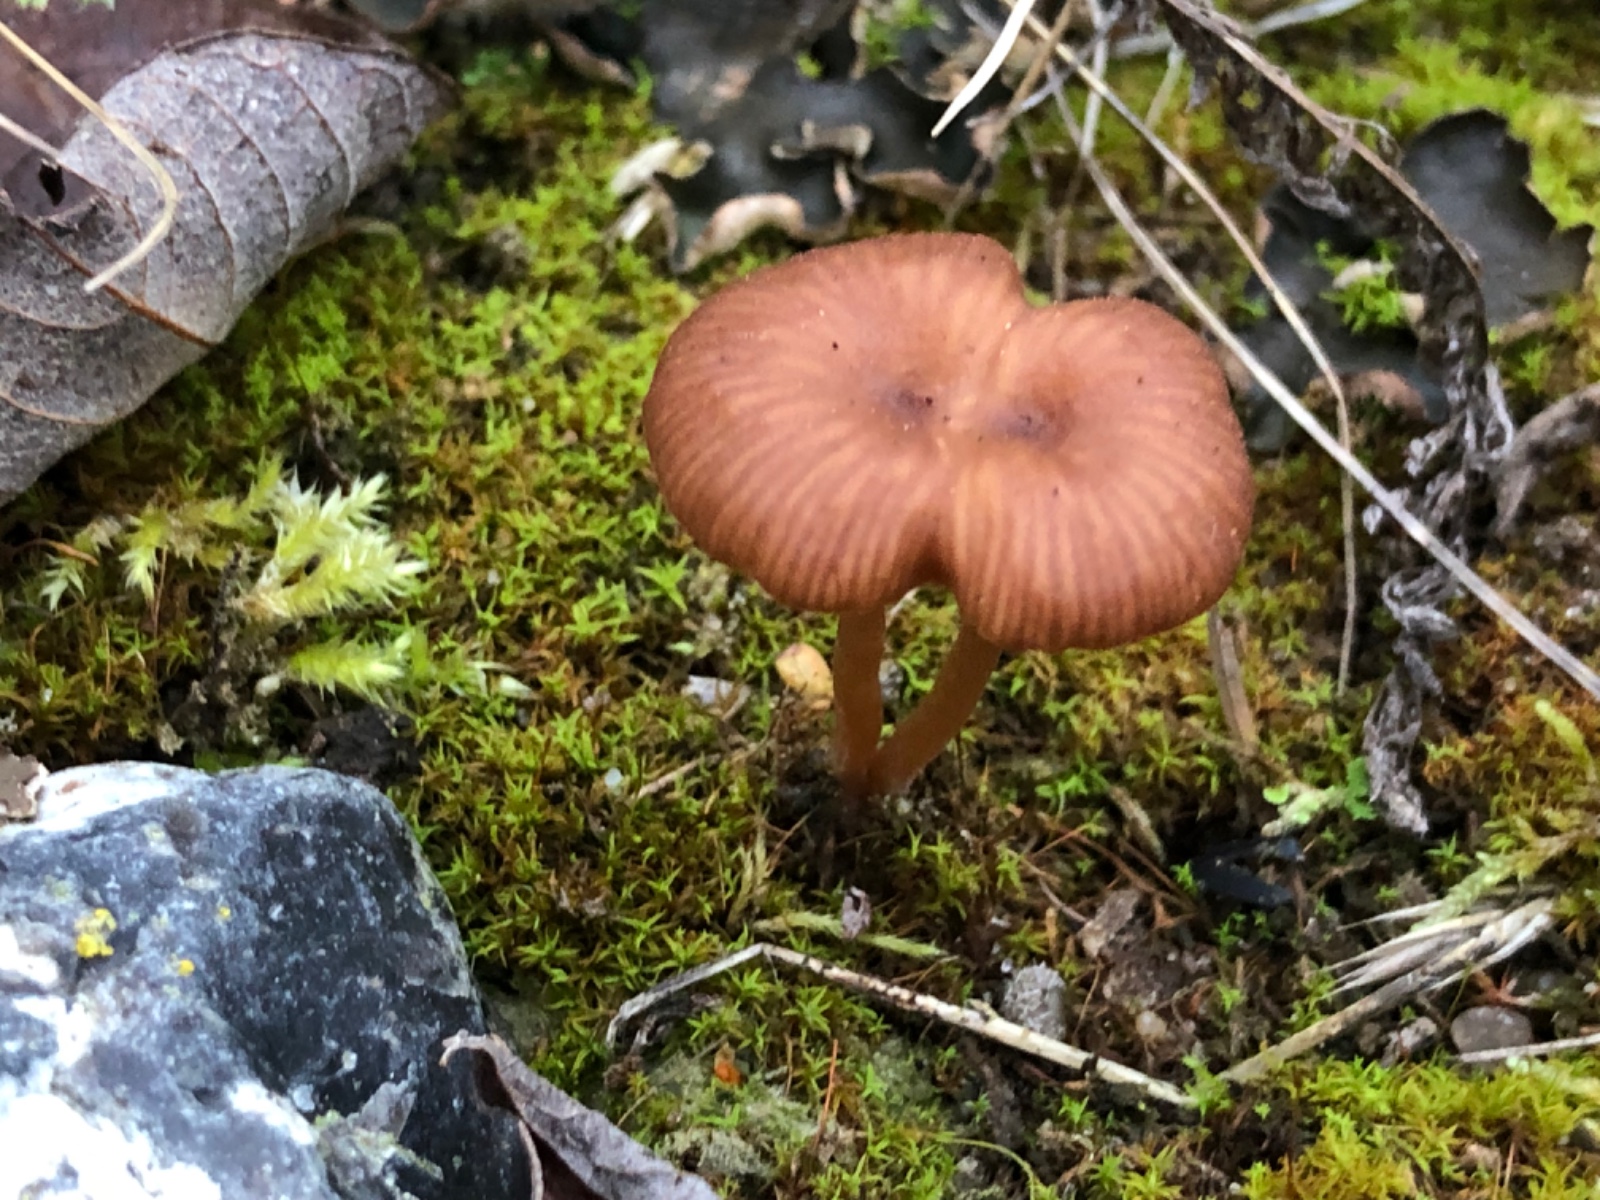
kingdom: Fungi
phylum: Basidiomycota
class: Agaricomycetes
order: Agaricales
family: Tricholomataceae
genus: Omphalina
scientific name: Omphalina pyxidata
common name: rødbrun navlehat
